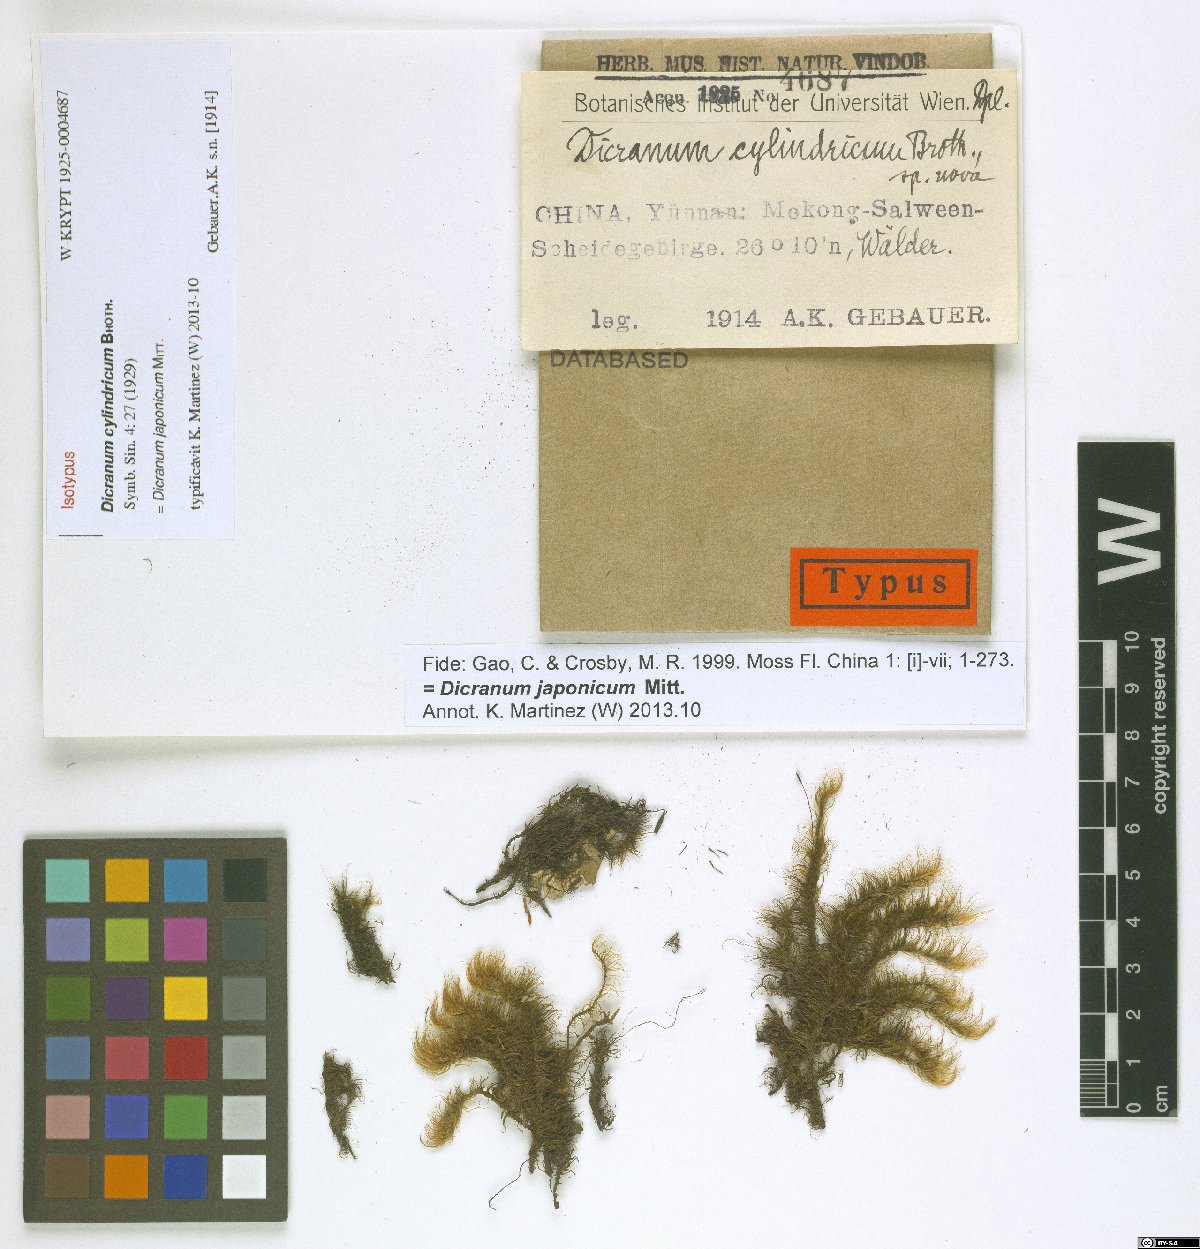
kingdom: Plantae
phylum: Bryophyta
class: Bryopsida
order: Dicranales
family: Dicranaceae
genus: Dicranum
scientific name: Dicranum japonicum
